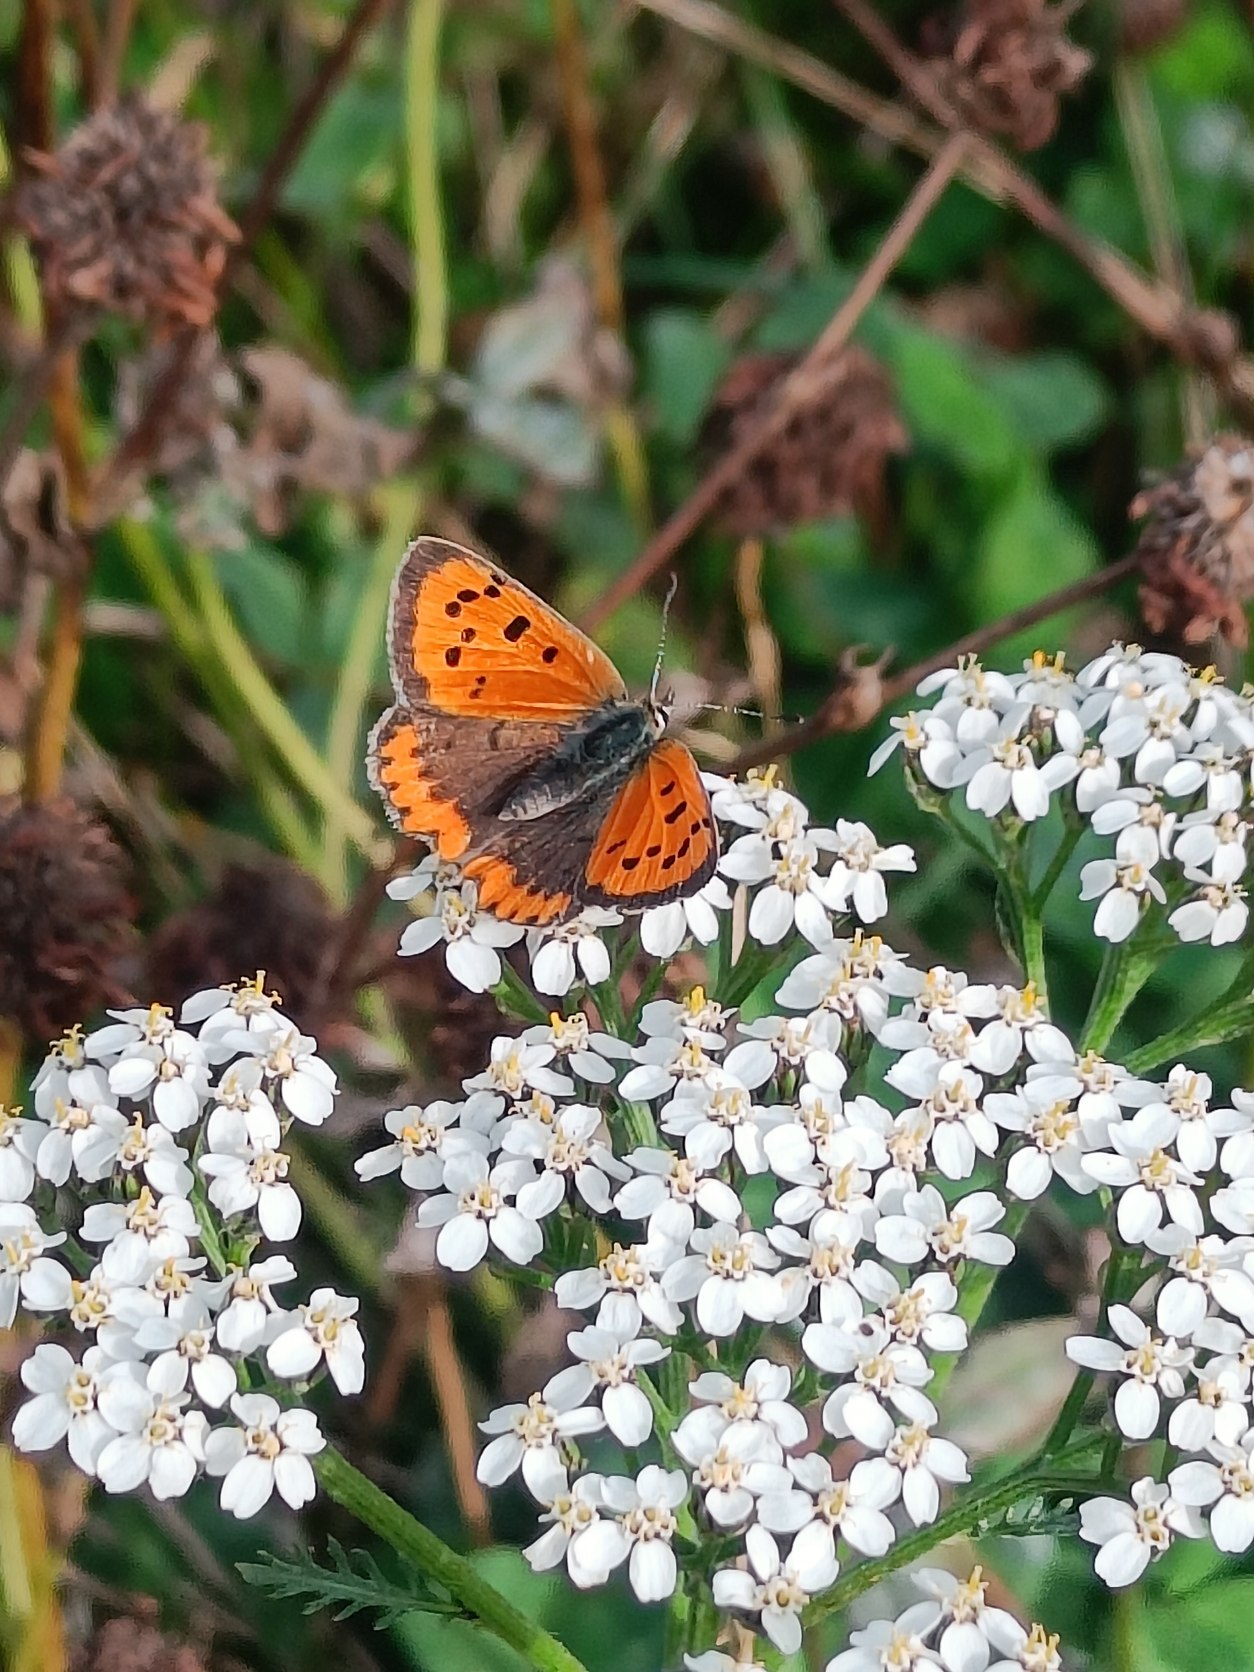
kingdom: Animalia
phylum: Arthropoda
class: Insecta
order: Lepidoptera
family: Lycaenidae
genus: Lycaena
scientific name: Lycaena phlaeas
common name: Lille ildfugl
